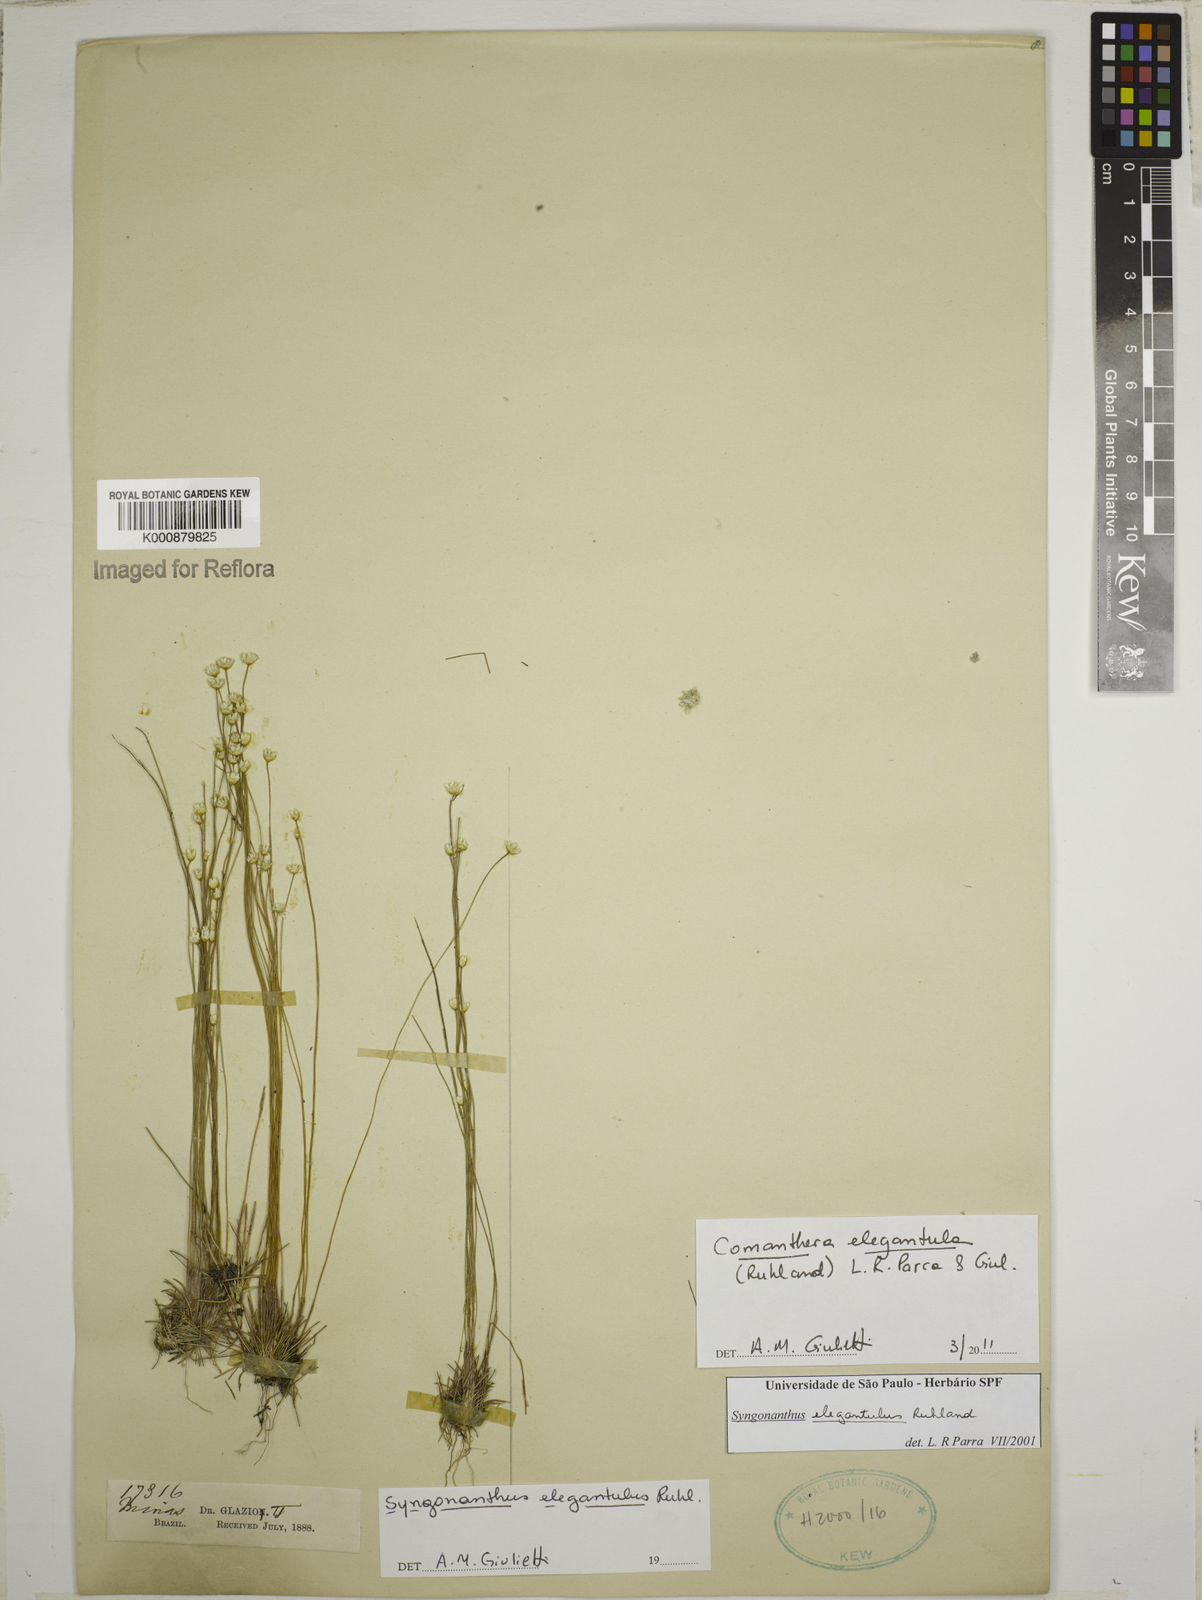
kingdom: Plantae
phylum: Tracheophyta
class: Liliopsida
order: Poales
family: Eriocaulaceae
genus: Comanthera
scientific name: Comanthera elegantula
